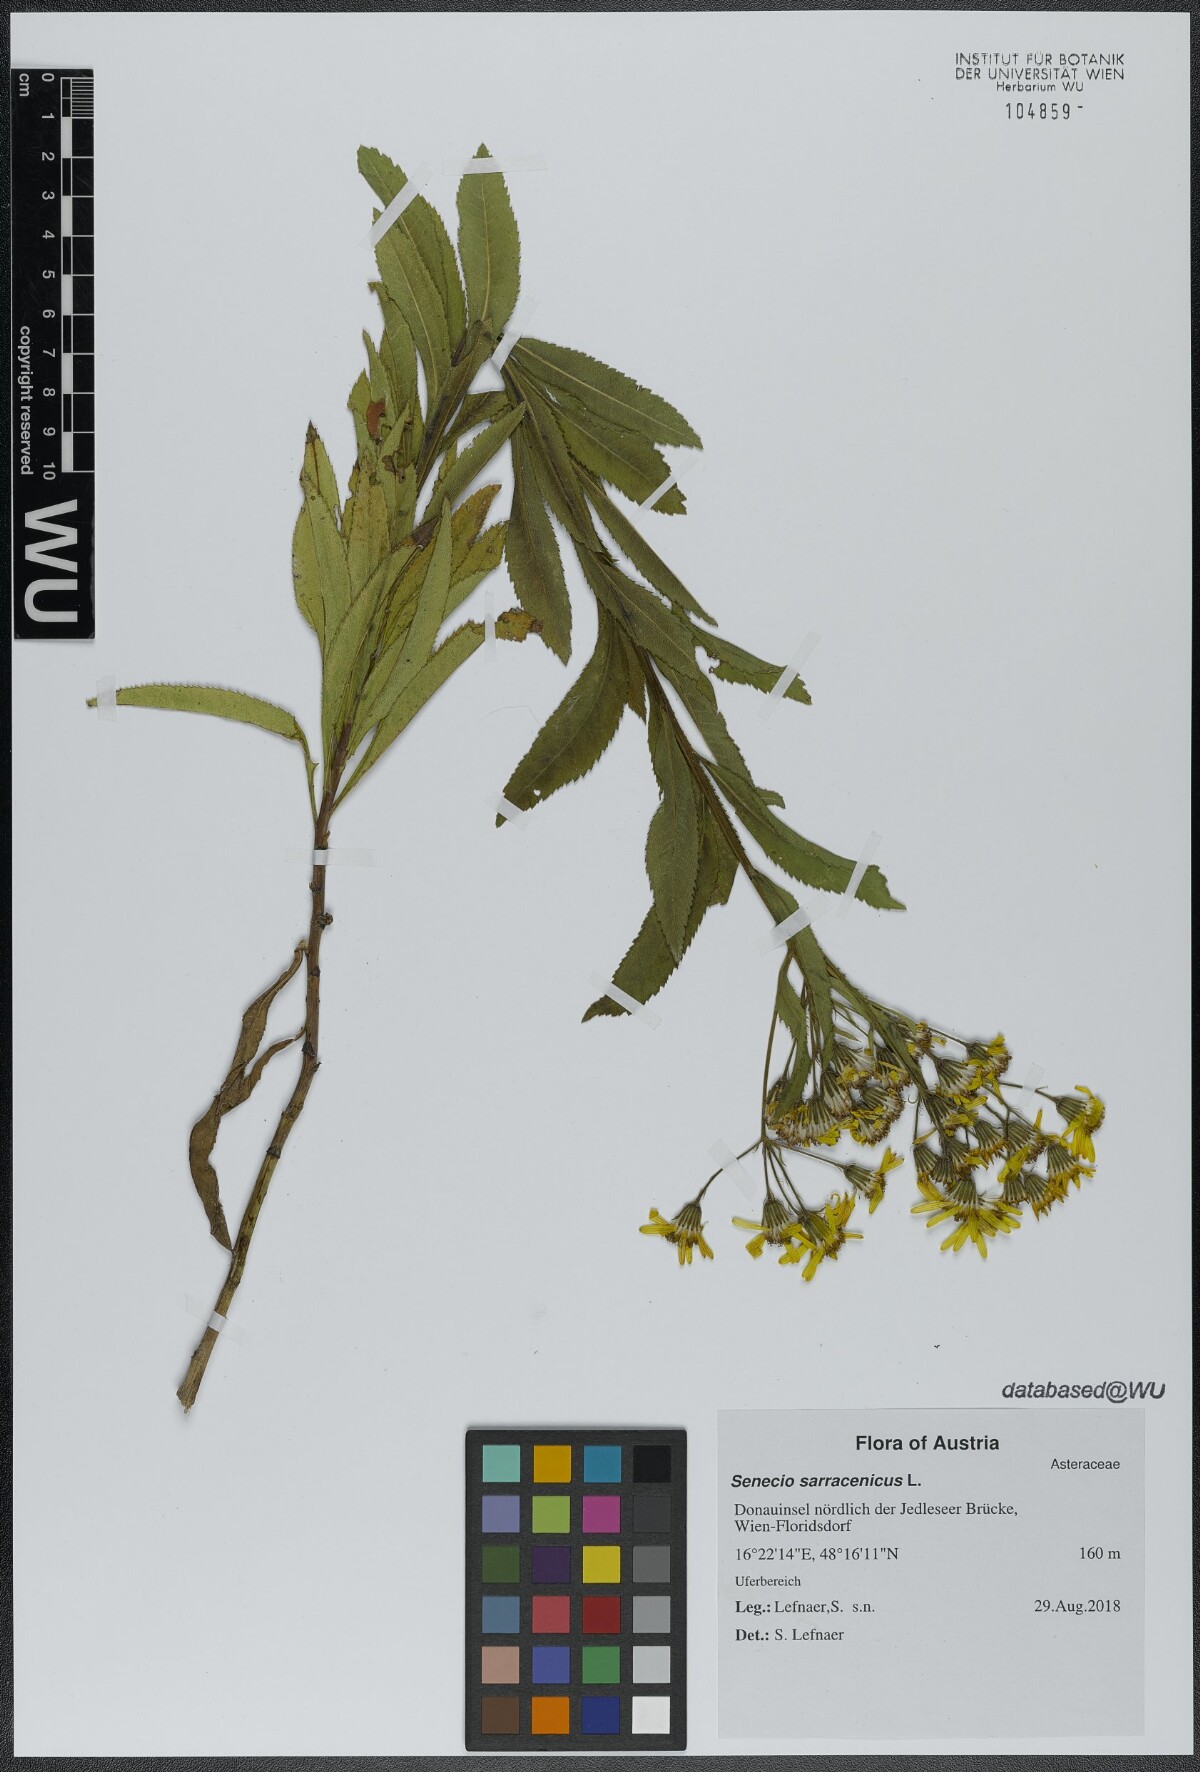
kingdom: Plantae
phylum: Tracheophyta
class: Magnoliopsida
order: Asterales
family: Asteraceae
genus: Senecio
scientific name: Senecio sarracenicus
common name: Broad-leaved ragwort
